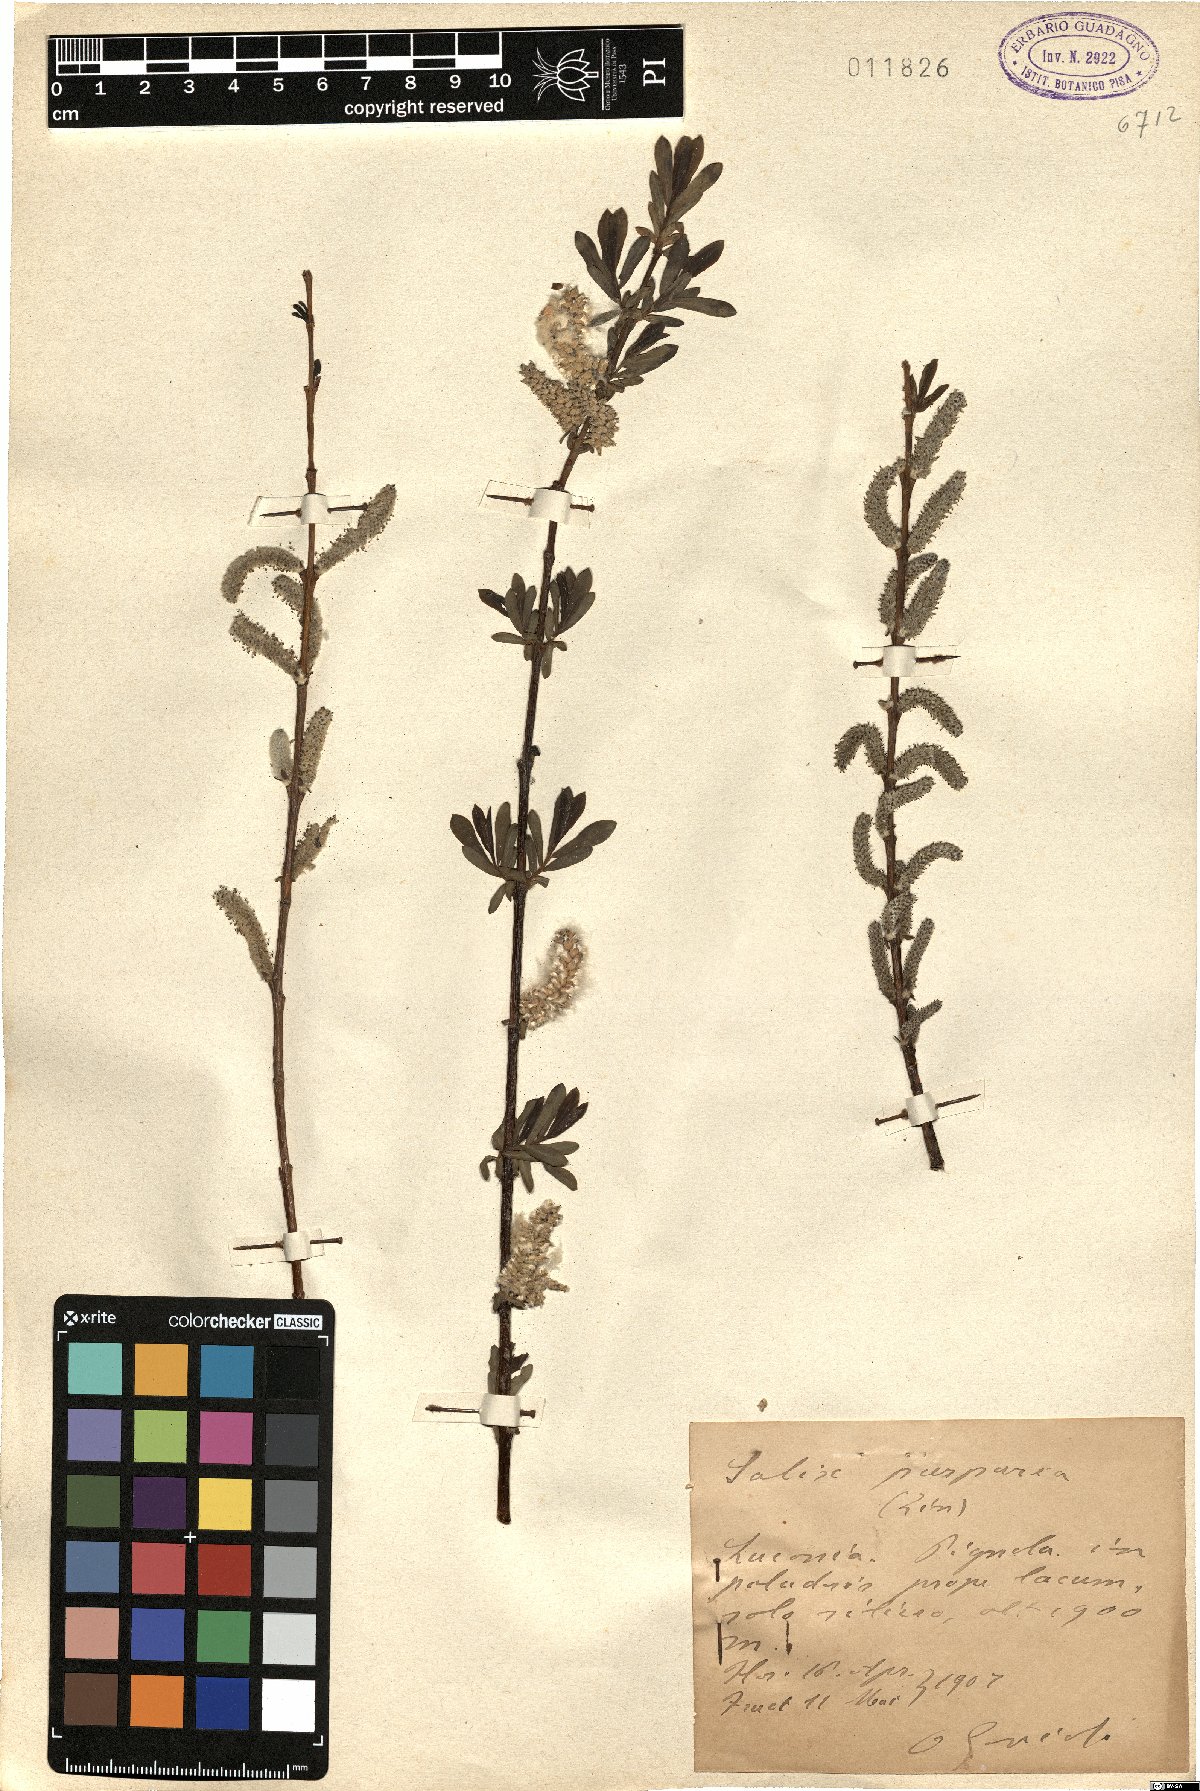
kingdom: Plantae
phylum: Tracheophyta
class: Magnoliopsida
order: Malpighiales
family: Salicaceae
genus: Salix
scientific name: Salix purpurea
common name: Purple willow
